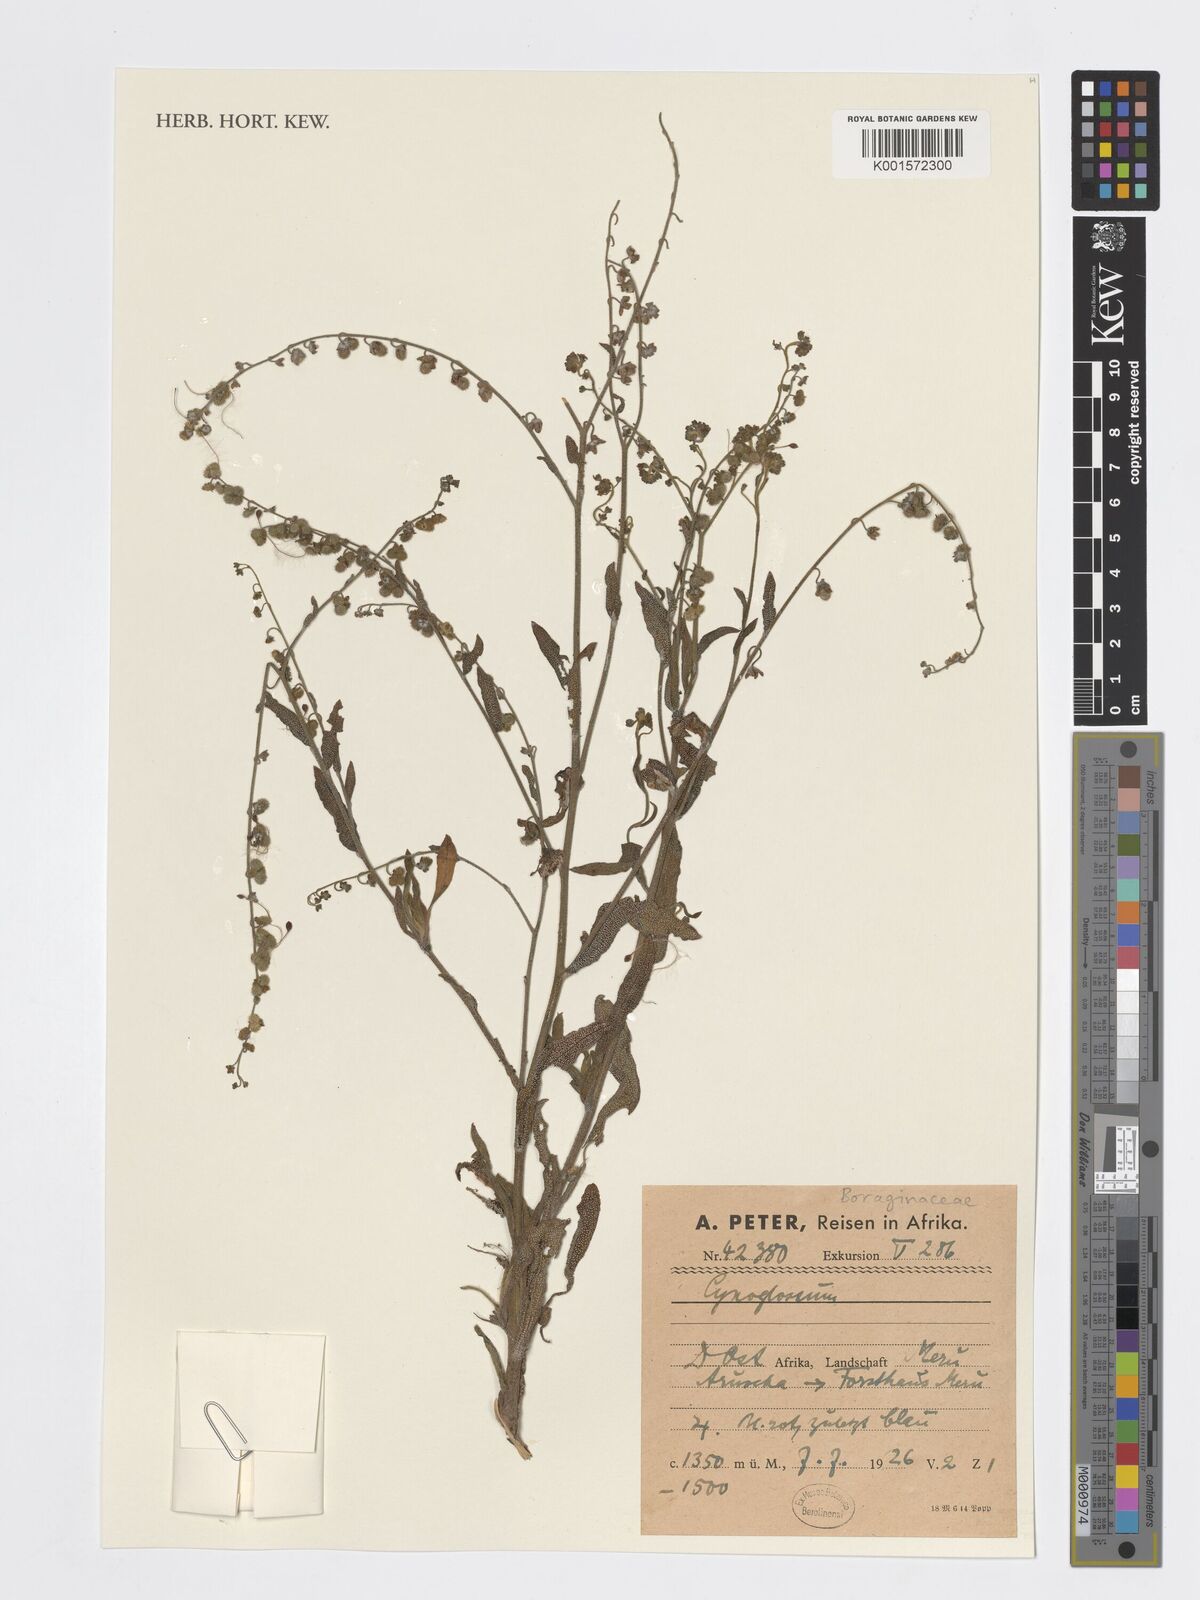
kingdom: Plantae
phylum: Tracheophyta
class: Magnoliopsida
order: Boraginales
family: Boraginaceae
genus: Cynoglossum
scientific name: Cynoglossum
